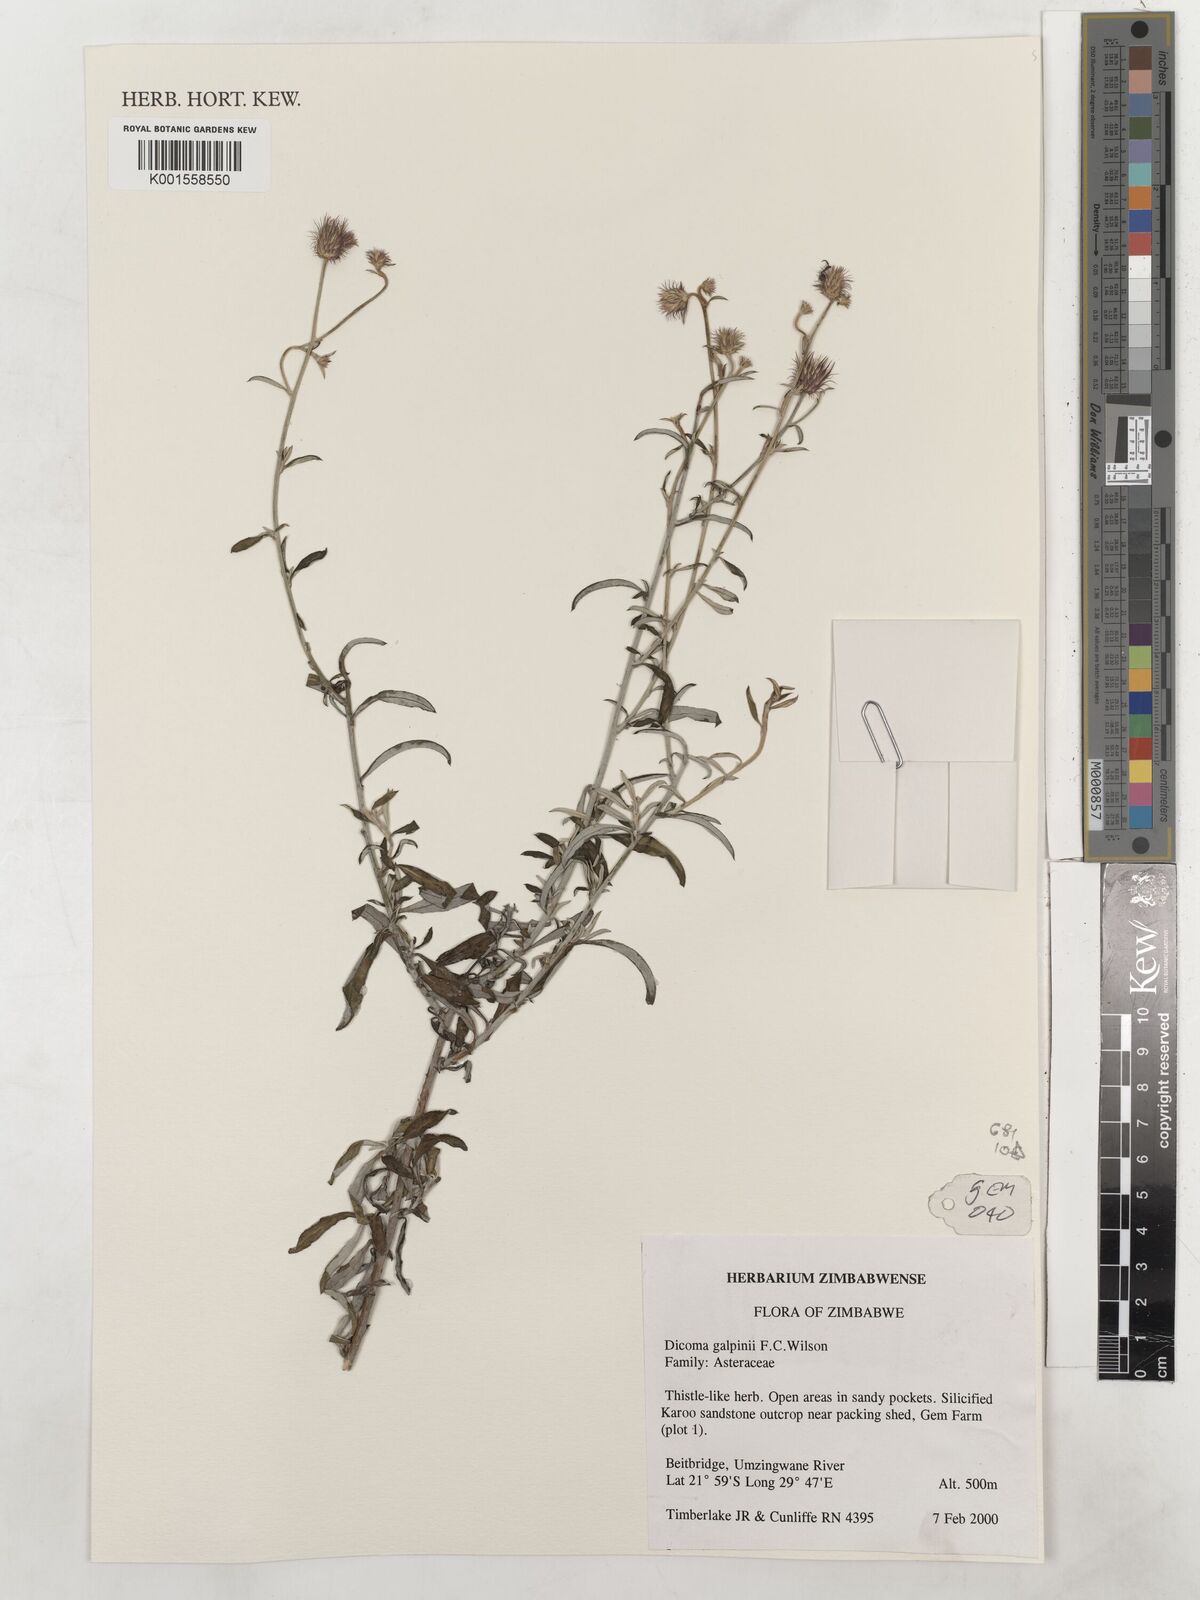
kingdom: Plantae
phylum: Tracheophyta
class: Magnoliopsida
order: Asterales
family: Asteraceae
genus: Dicoma
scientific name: Dicoma galpinii
